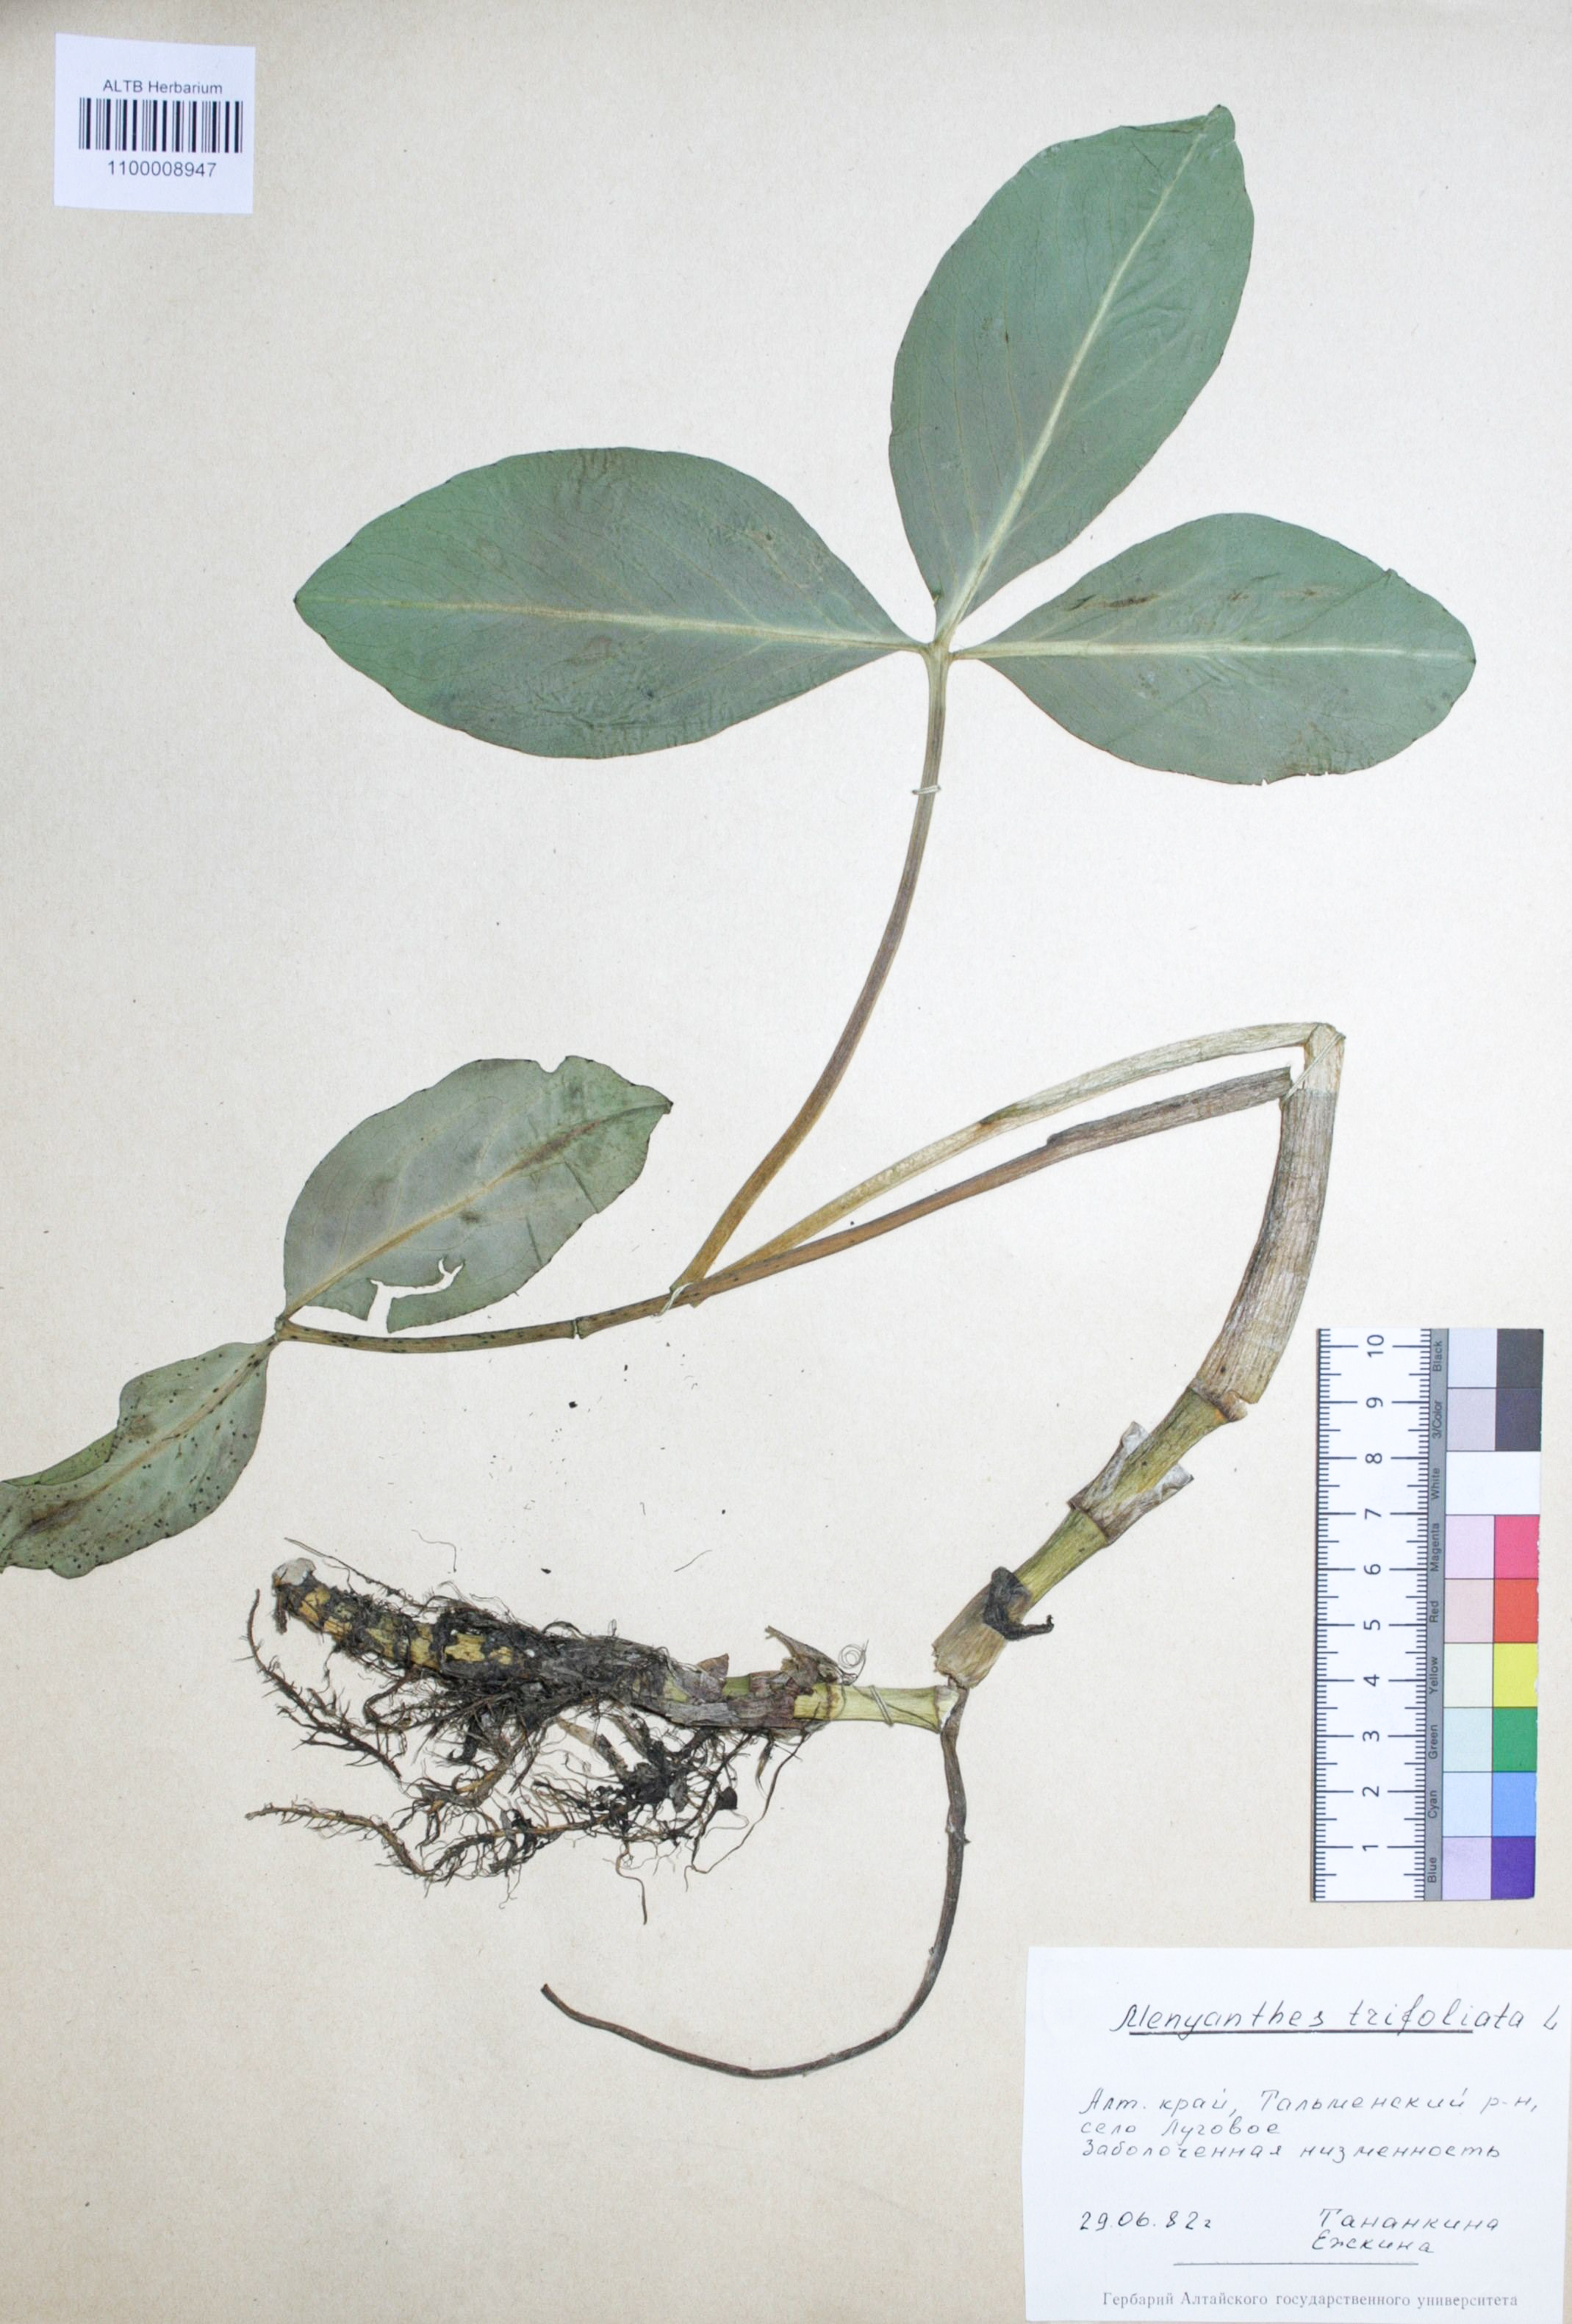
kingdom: Plantae
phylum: Tracheophyta
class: Magnoliopsida
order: Asterales
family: Menyanthaceae
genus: Menyanthes
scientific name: Menyanthes trifoliata
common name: Bogbean
